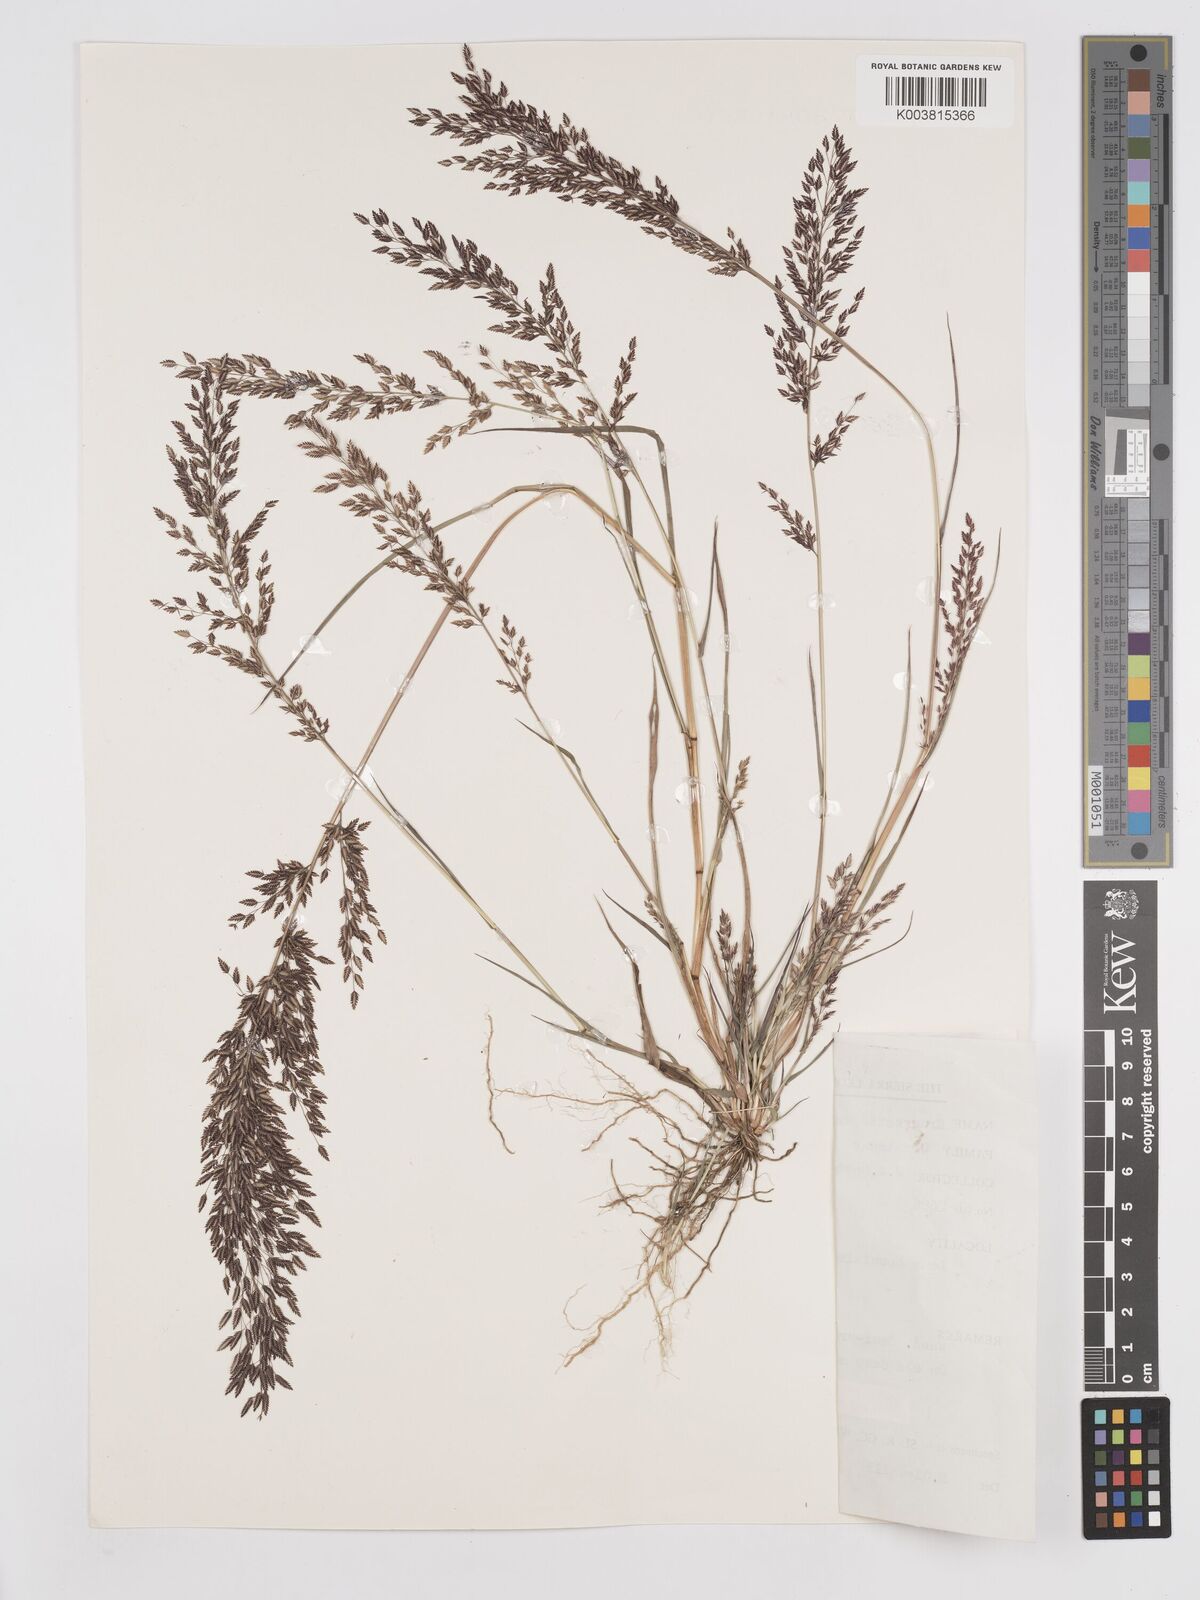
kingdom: Plantae
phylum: Tracheophyta
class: Liliopsida
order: Poales
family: Poaceae
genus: Eragrostis
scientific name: Eragrostis welwitschii
